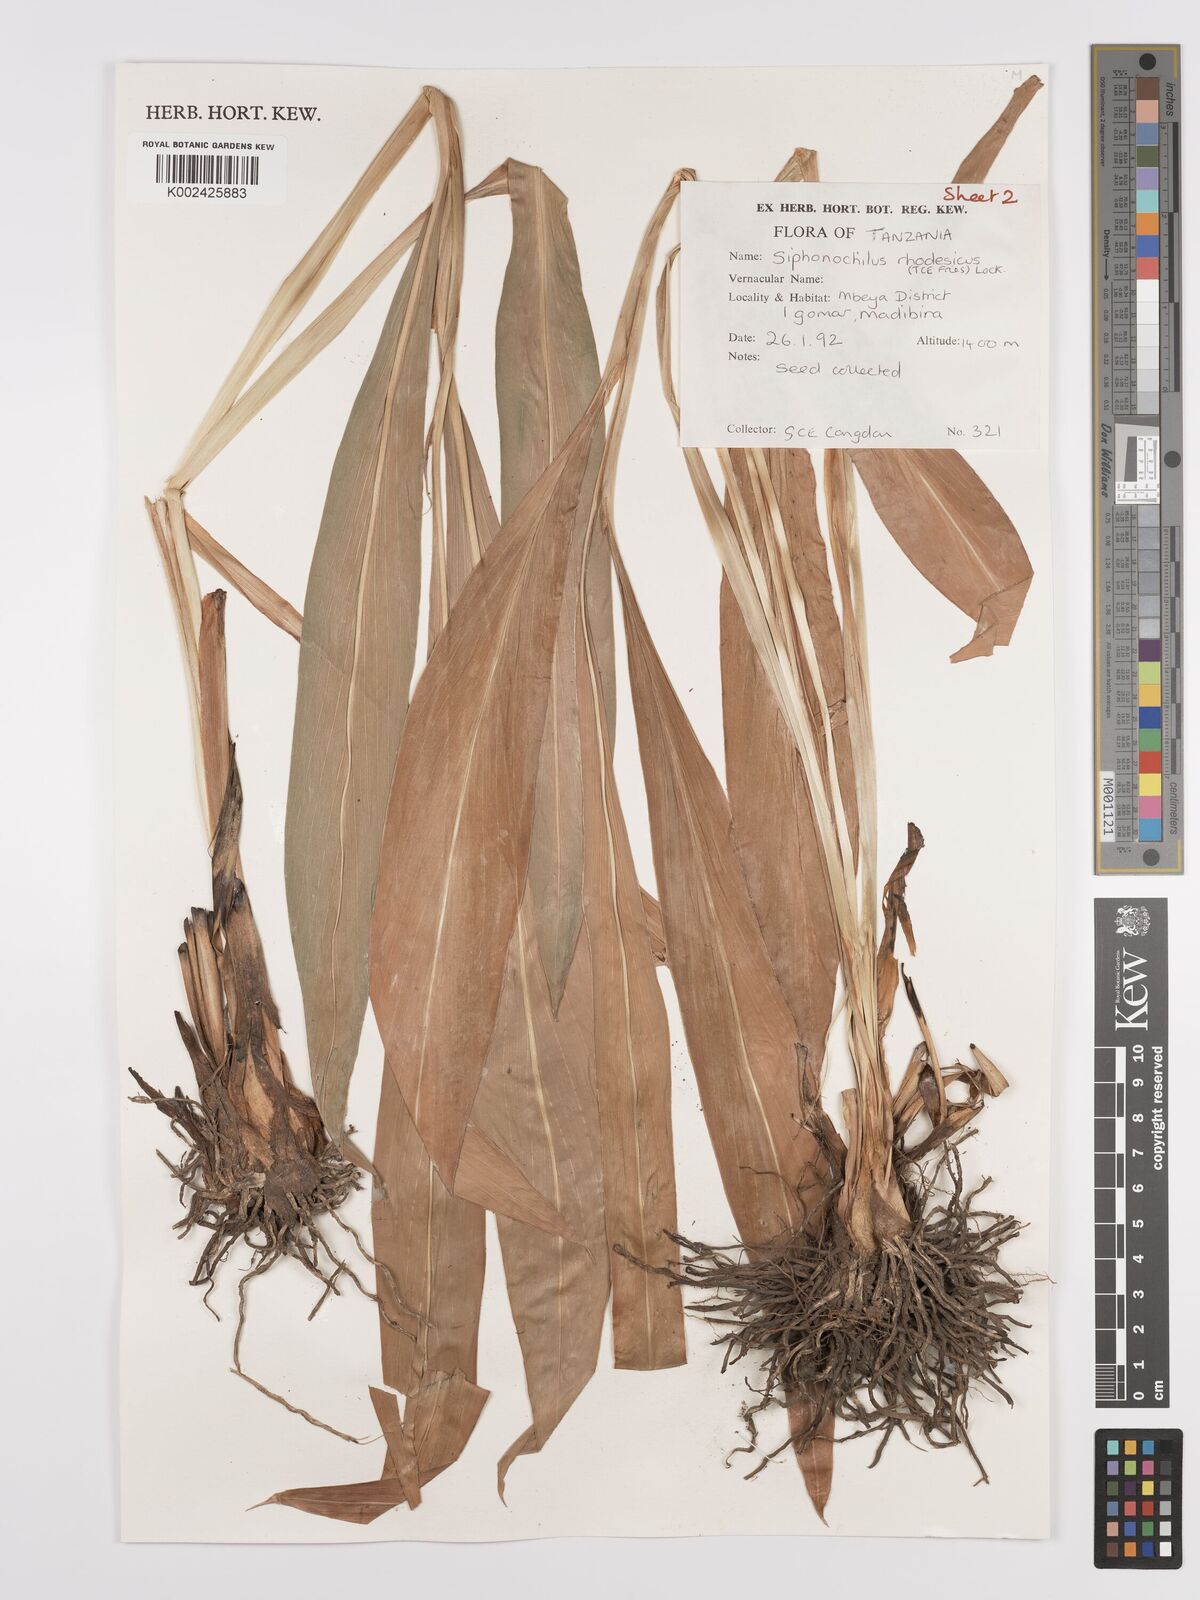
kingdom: Plantae
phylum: Tracheophyta
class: Liliopsida
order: Zingiberales
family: Zingiberaceae
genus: Siphonochilus
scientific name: Siphonochilus rhodesicus
